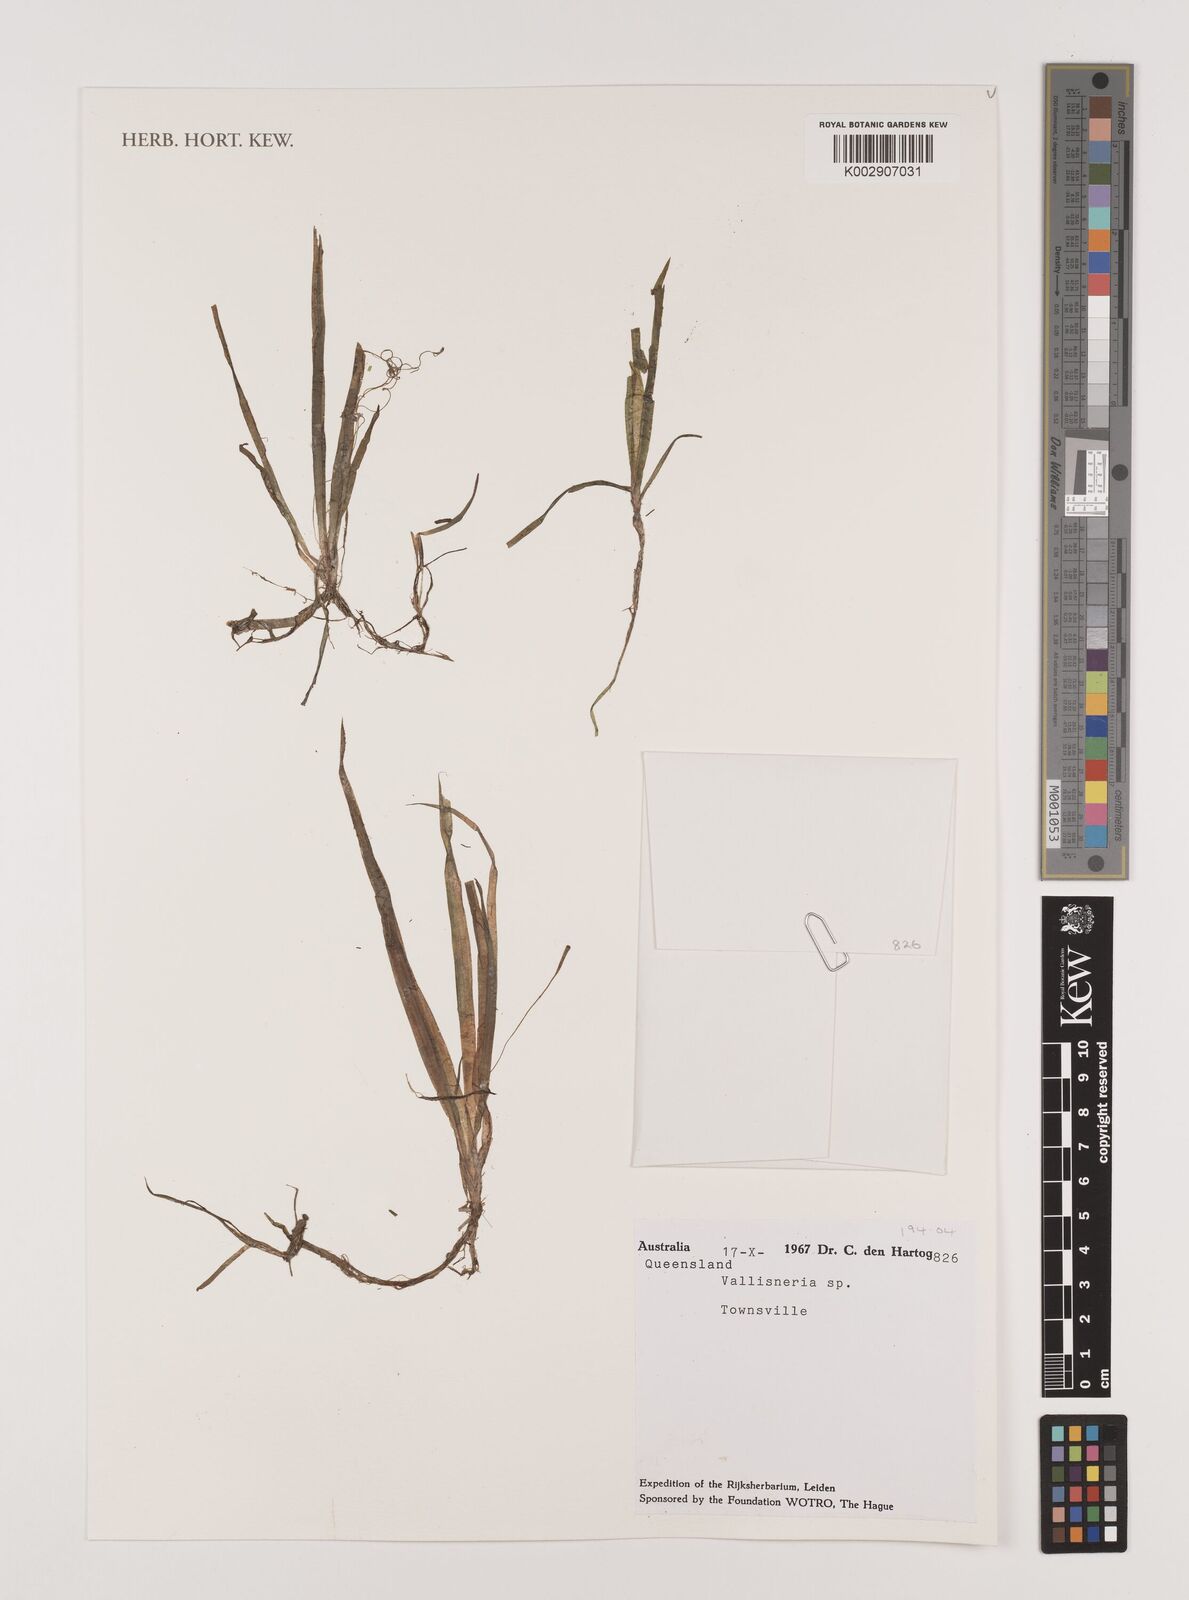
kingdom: Plantae
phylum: Tracheophyta
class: Liliopsida
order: Alismatales
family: Hydrocharitaceae
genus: Vallisneria
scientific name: Vallisneria
